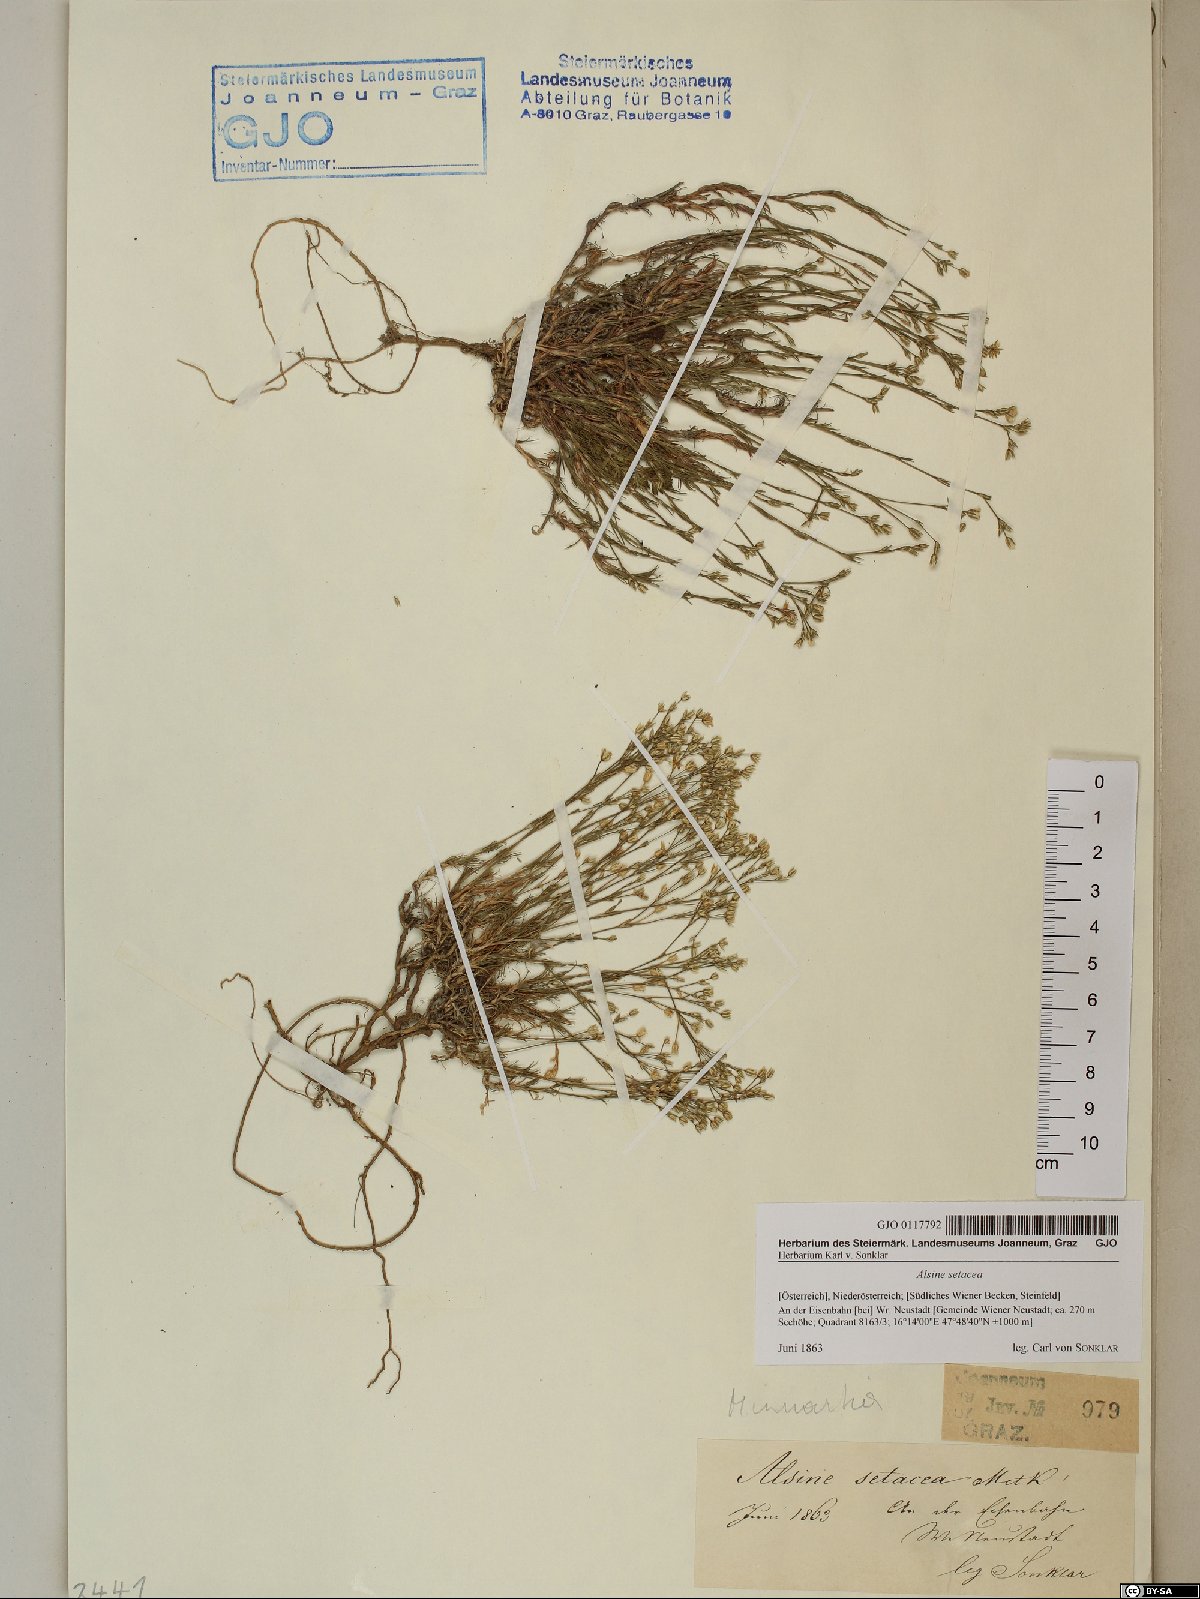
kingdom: Plantae
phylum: Tracheophyta
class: Magnoliopsida
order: Caryophyllales
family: Caryophyllaceae
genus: Minuartia
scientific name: Minuartia setacea
